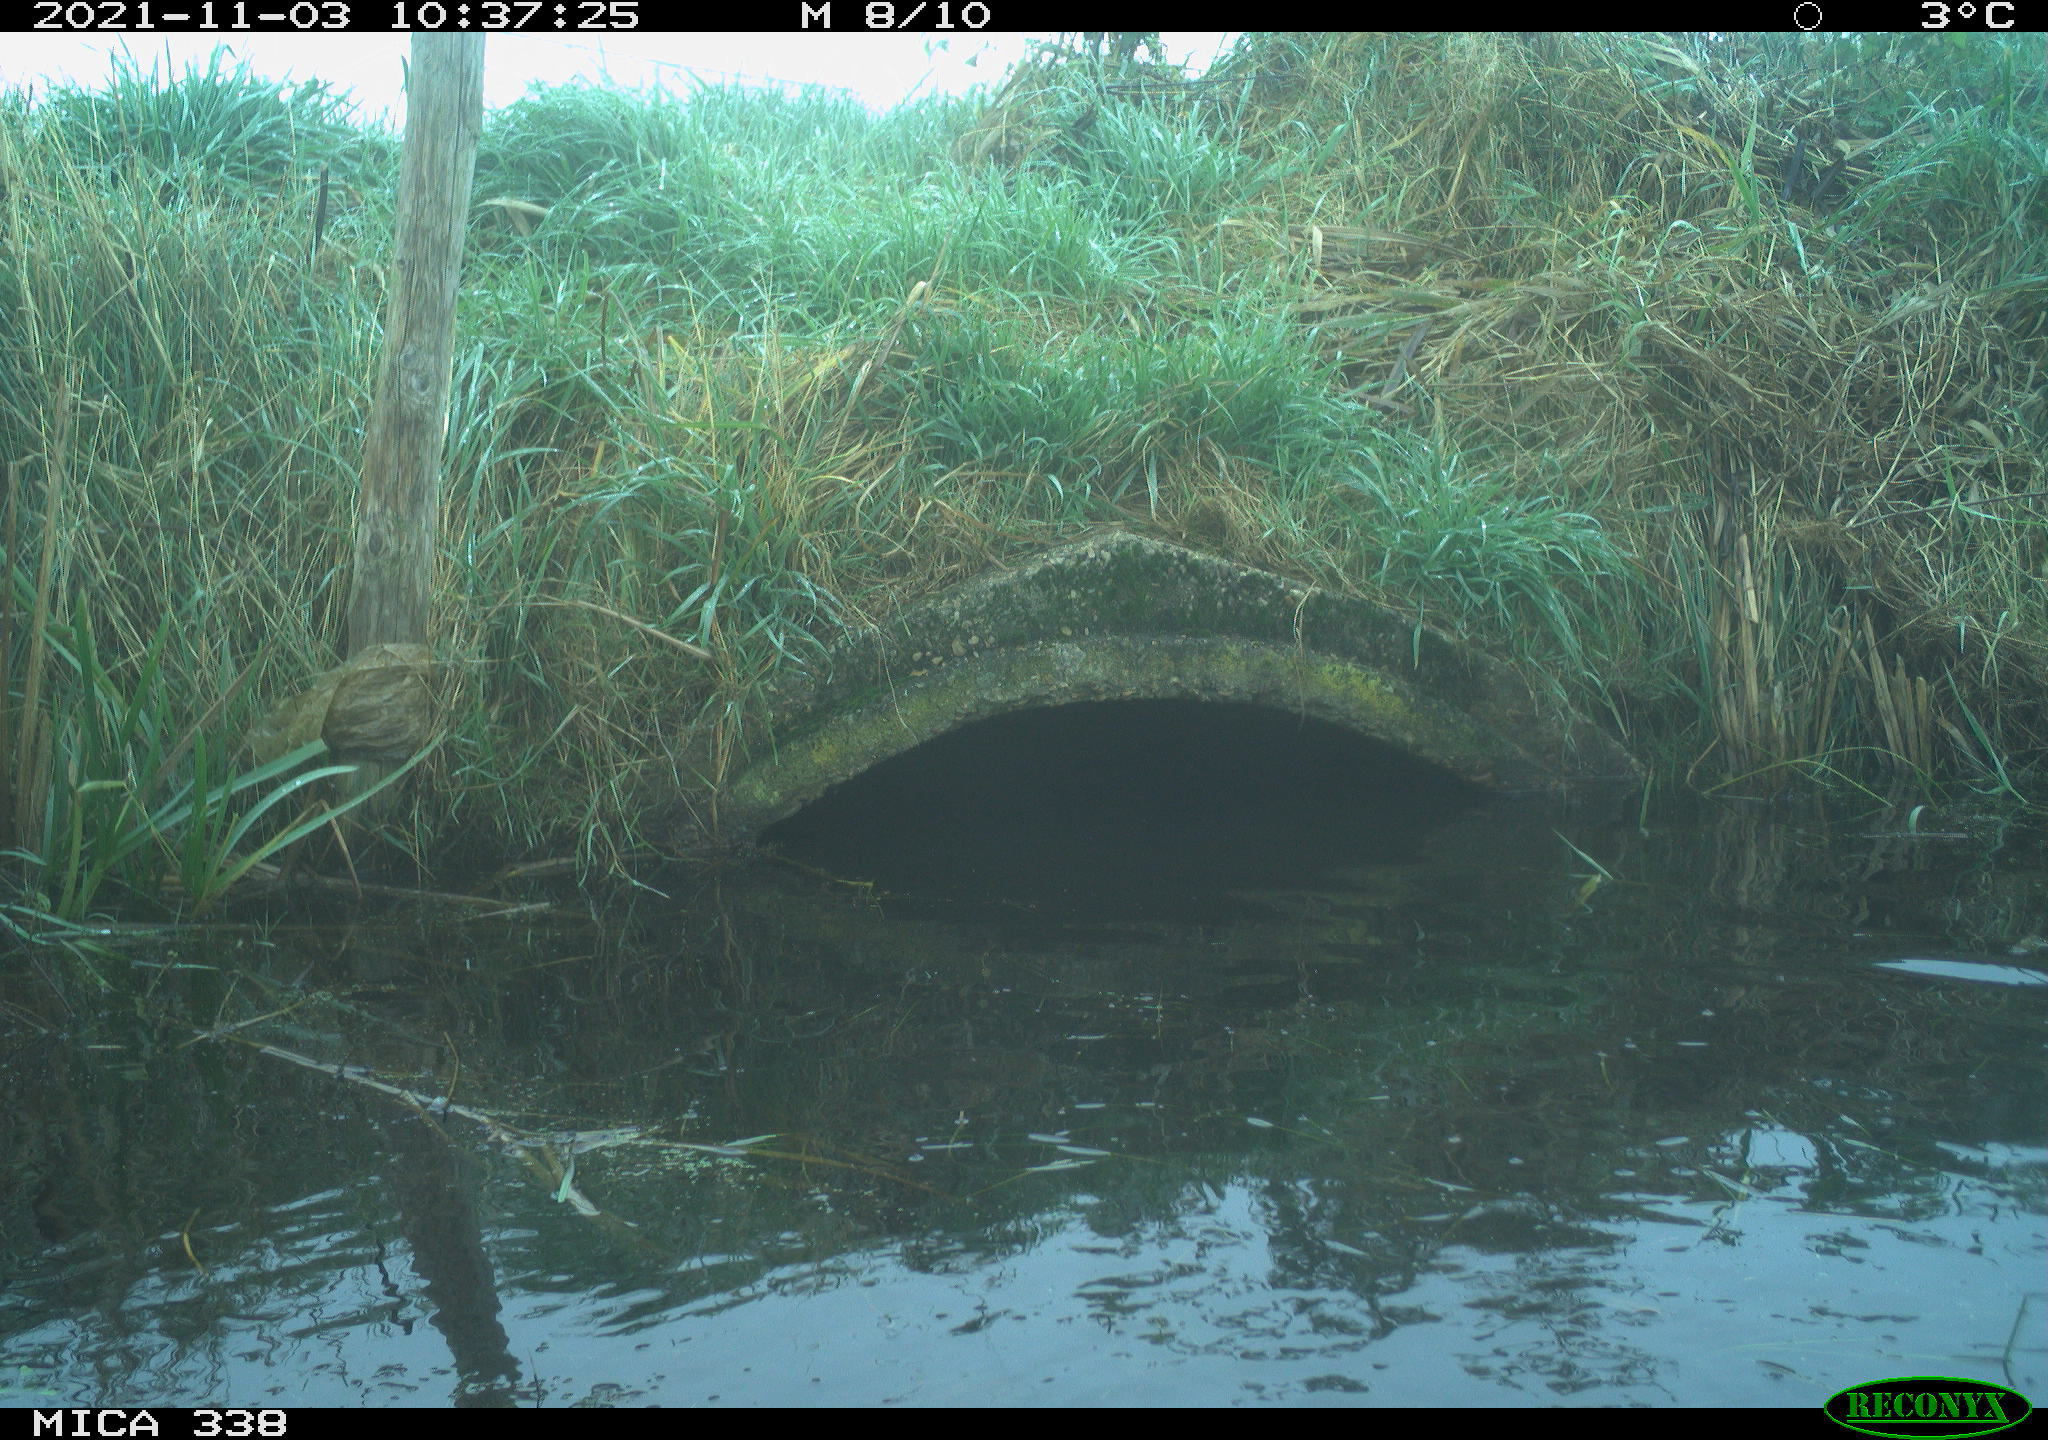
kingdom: Animalia
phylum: Chordata
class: Aves
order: Anseriformes
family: Anatidae
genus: Cygnus
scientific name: Cygnus olor
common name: Mute swan
